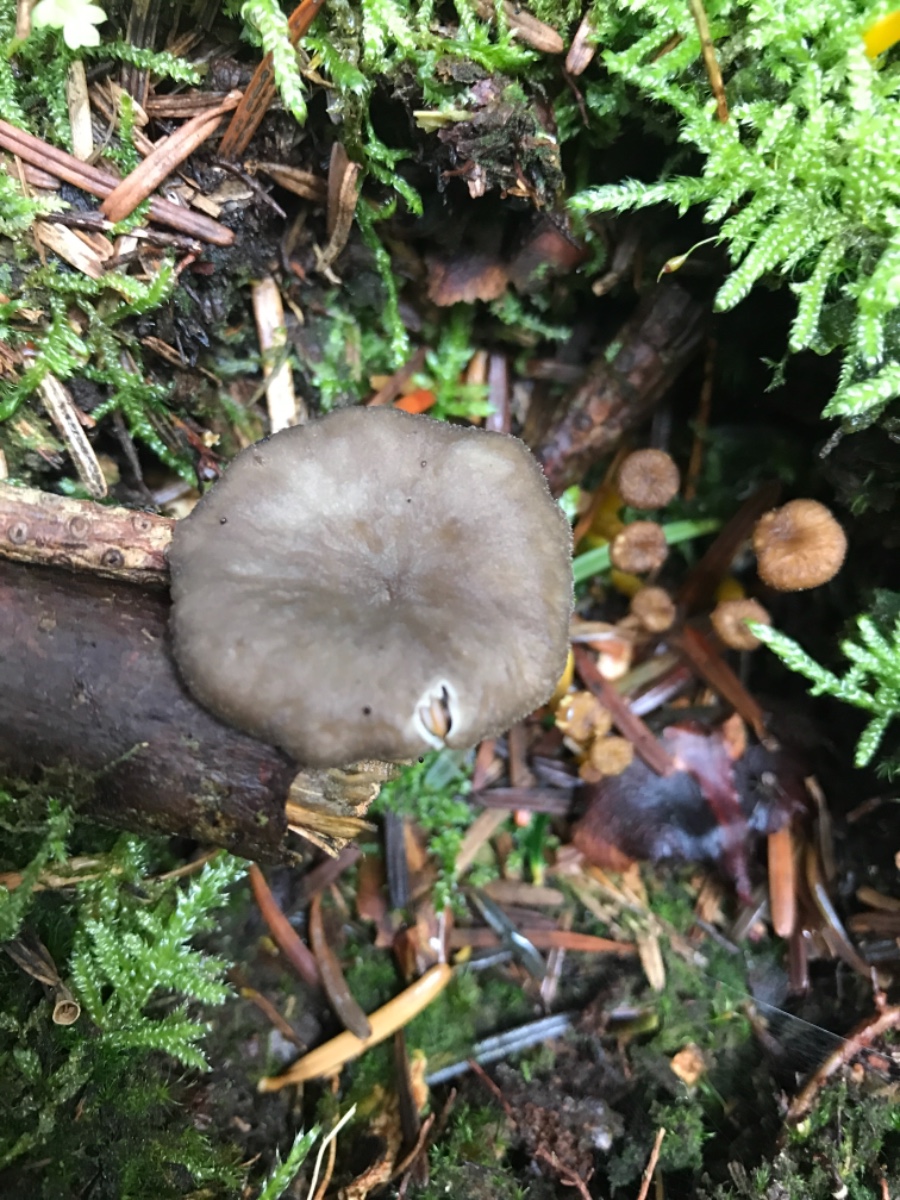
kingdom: Fungi
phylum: Basidiomycota
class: Agaricomycetes
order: Cantharellales
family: Hydnaceae
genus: Craterellus
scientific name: Craterellus tubaeformis
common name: tragt-kantarel
